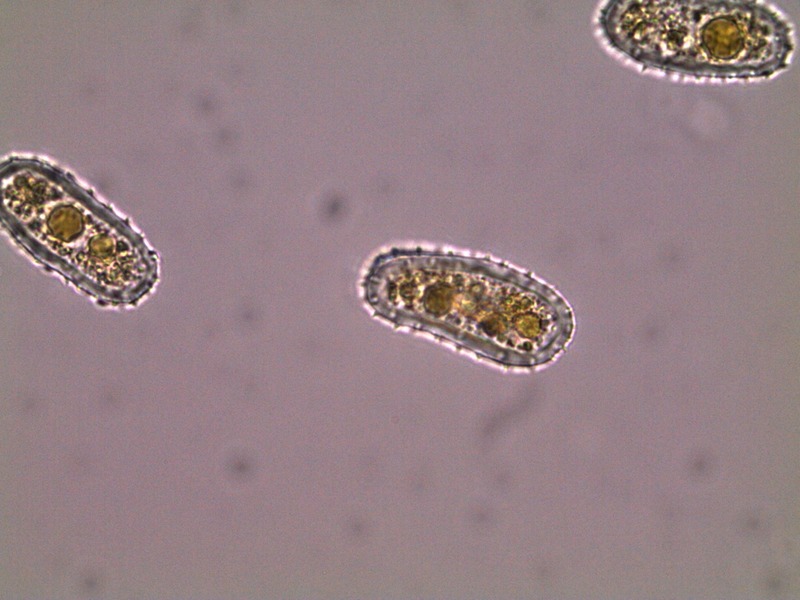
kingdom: Fungi
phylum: Basidiomycota
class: Pucciniomycetes
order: Pucciniales
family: Pucciniastraceae
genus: Melampsoridium
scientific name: Melampsoridium hiratsukanum
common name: Alder rust
